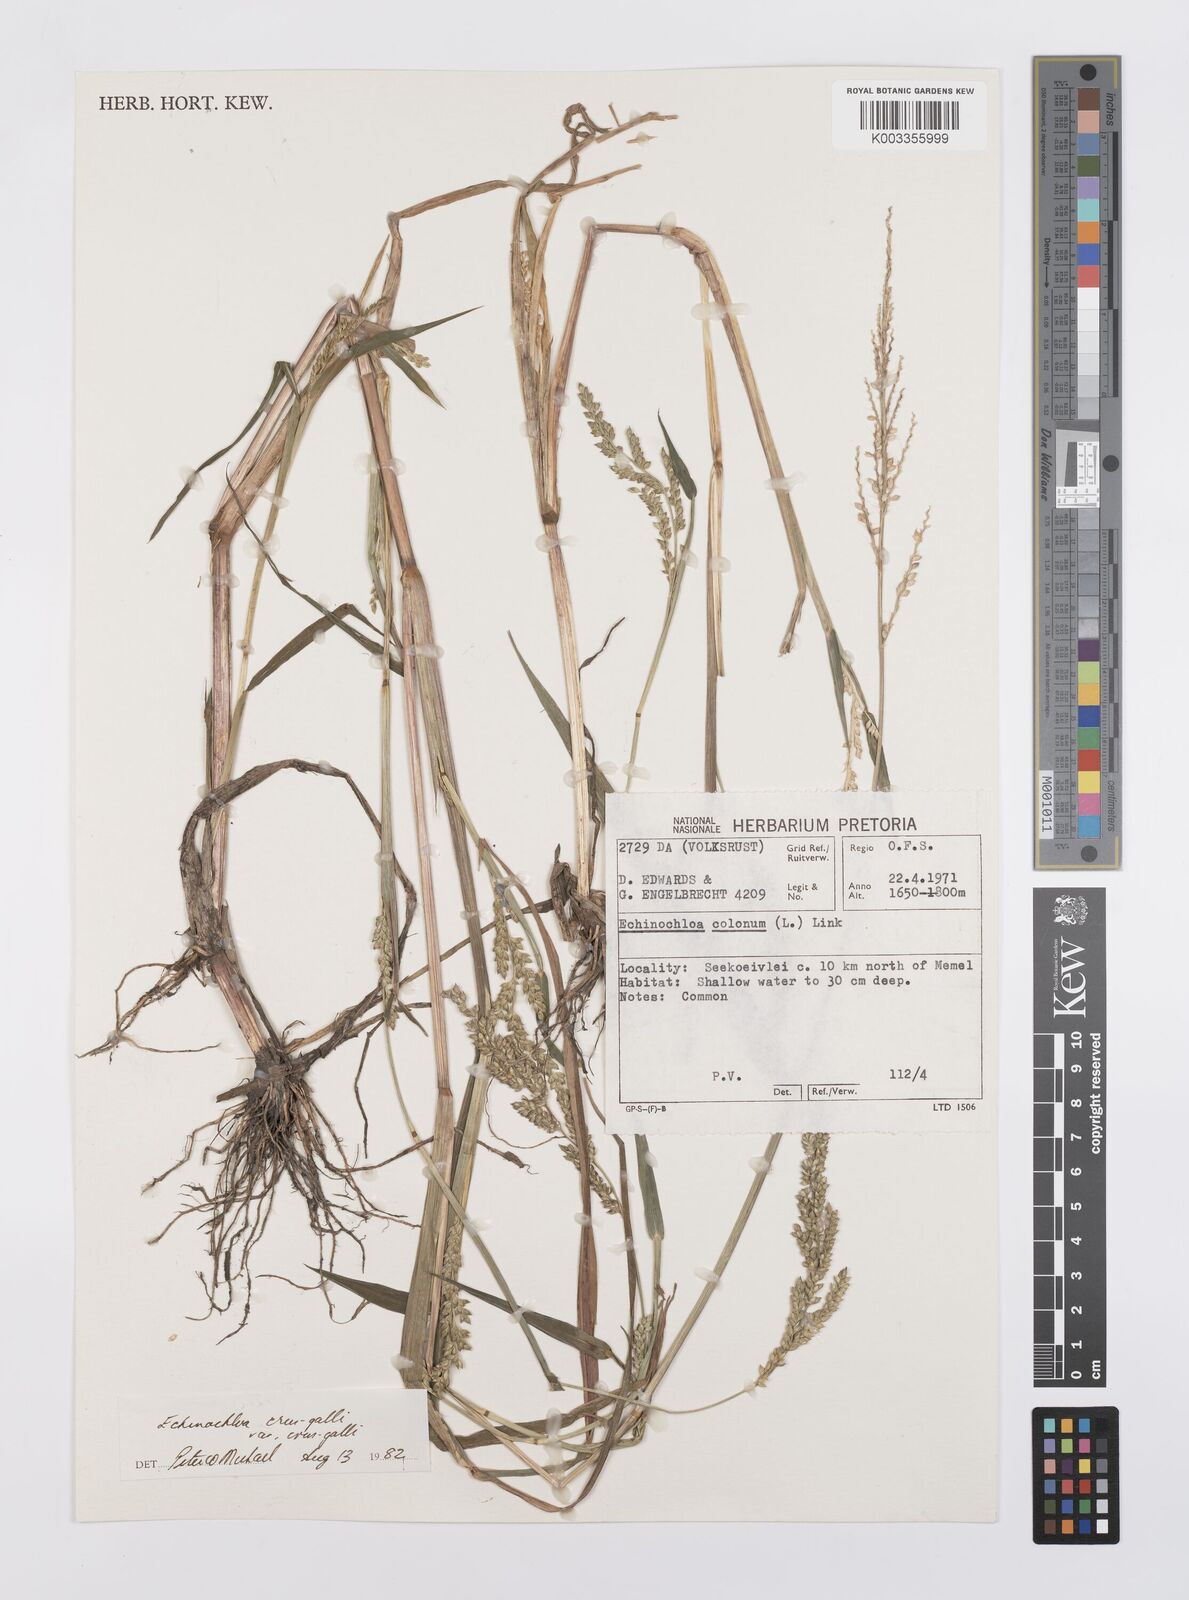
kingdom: Plantae
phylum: Tracheophyta
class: Liliopsida
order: Poales
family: Poaceae
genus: Echinochloa
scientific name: Echinochloa crus-galli
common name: Cockspur
